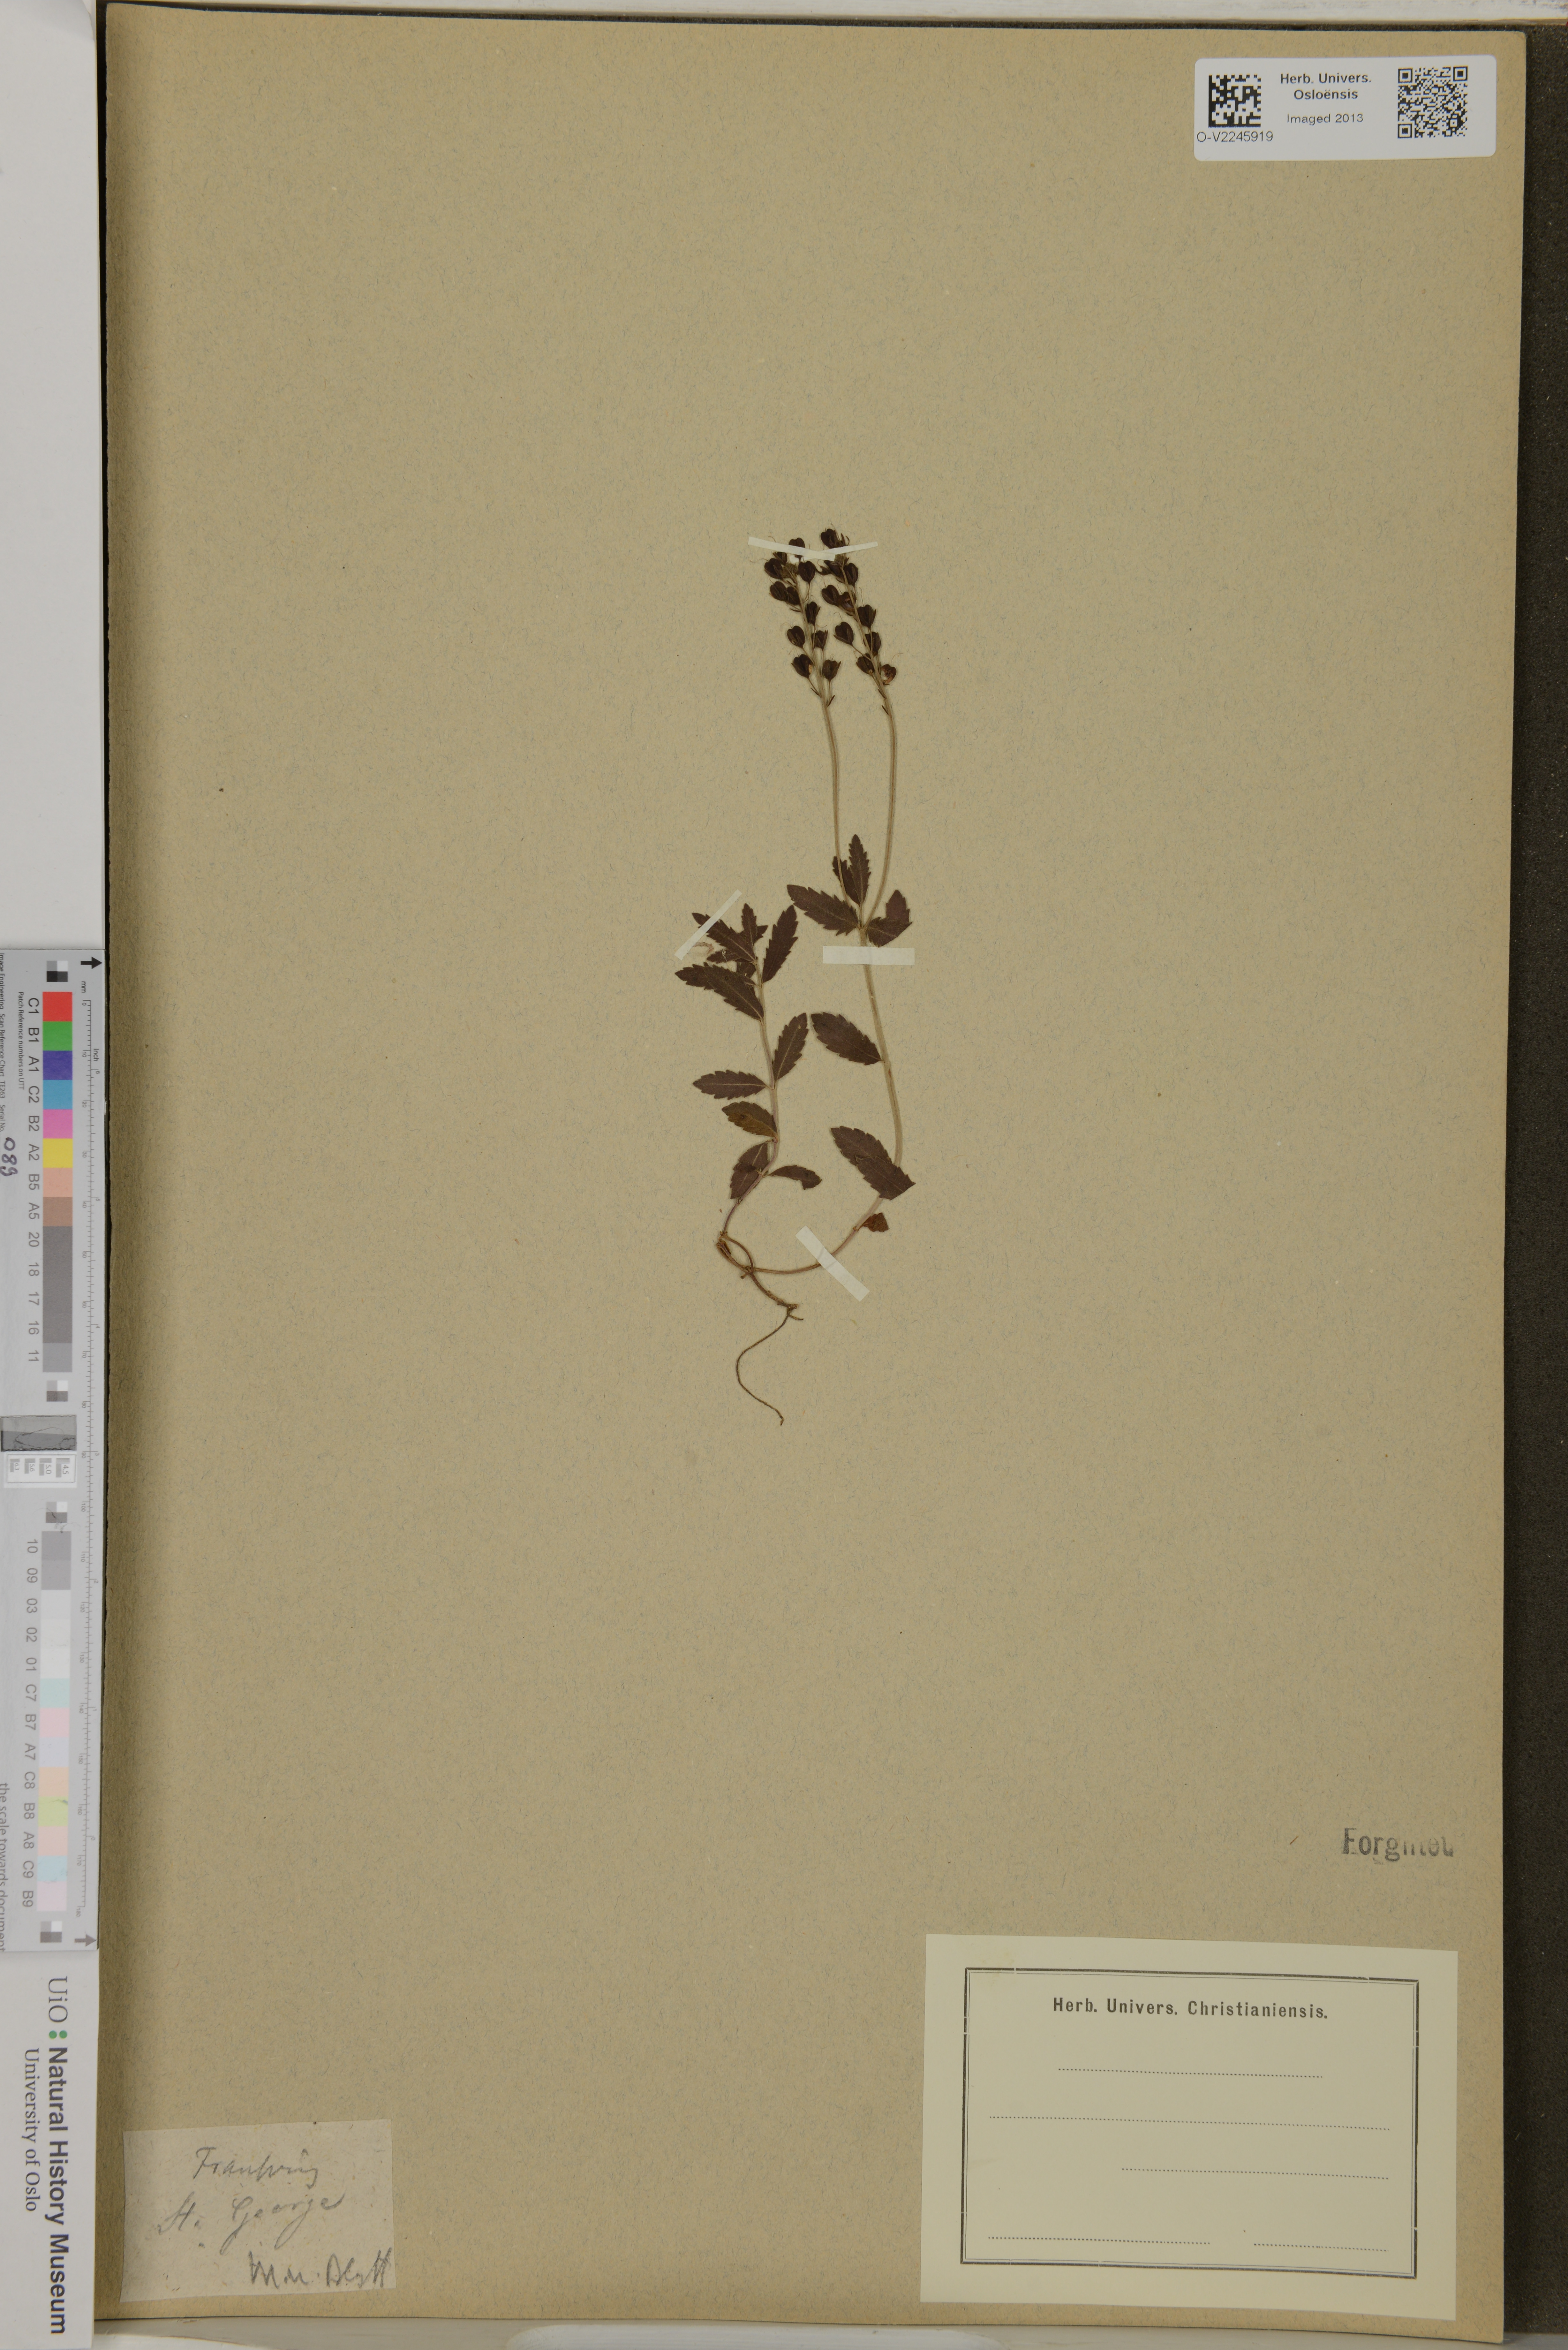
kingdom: Plantae
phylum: Tracheophyta
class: Magnoliopsida
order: Lamiales
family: Plantaginaceae
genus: Veronica
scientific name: Veronica teucrium
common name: Large speedwell
